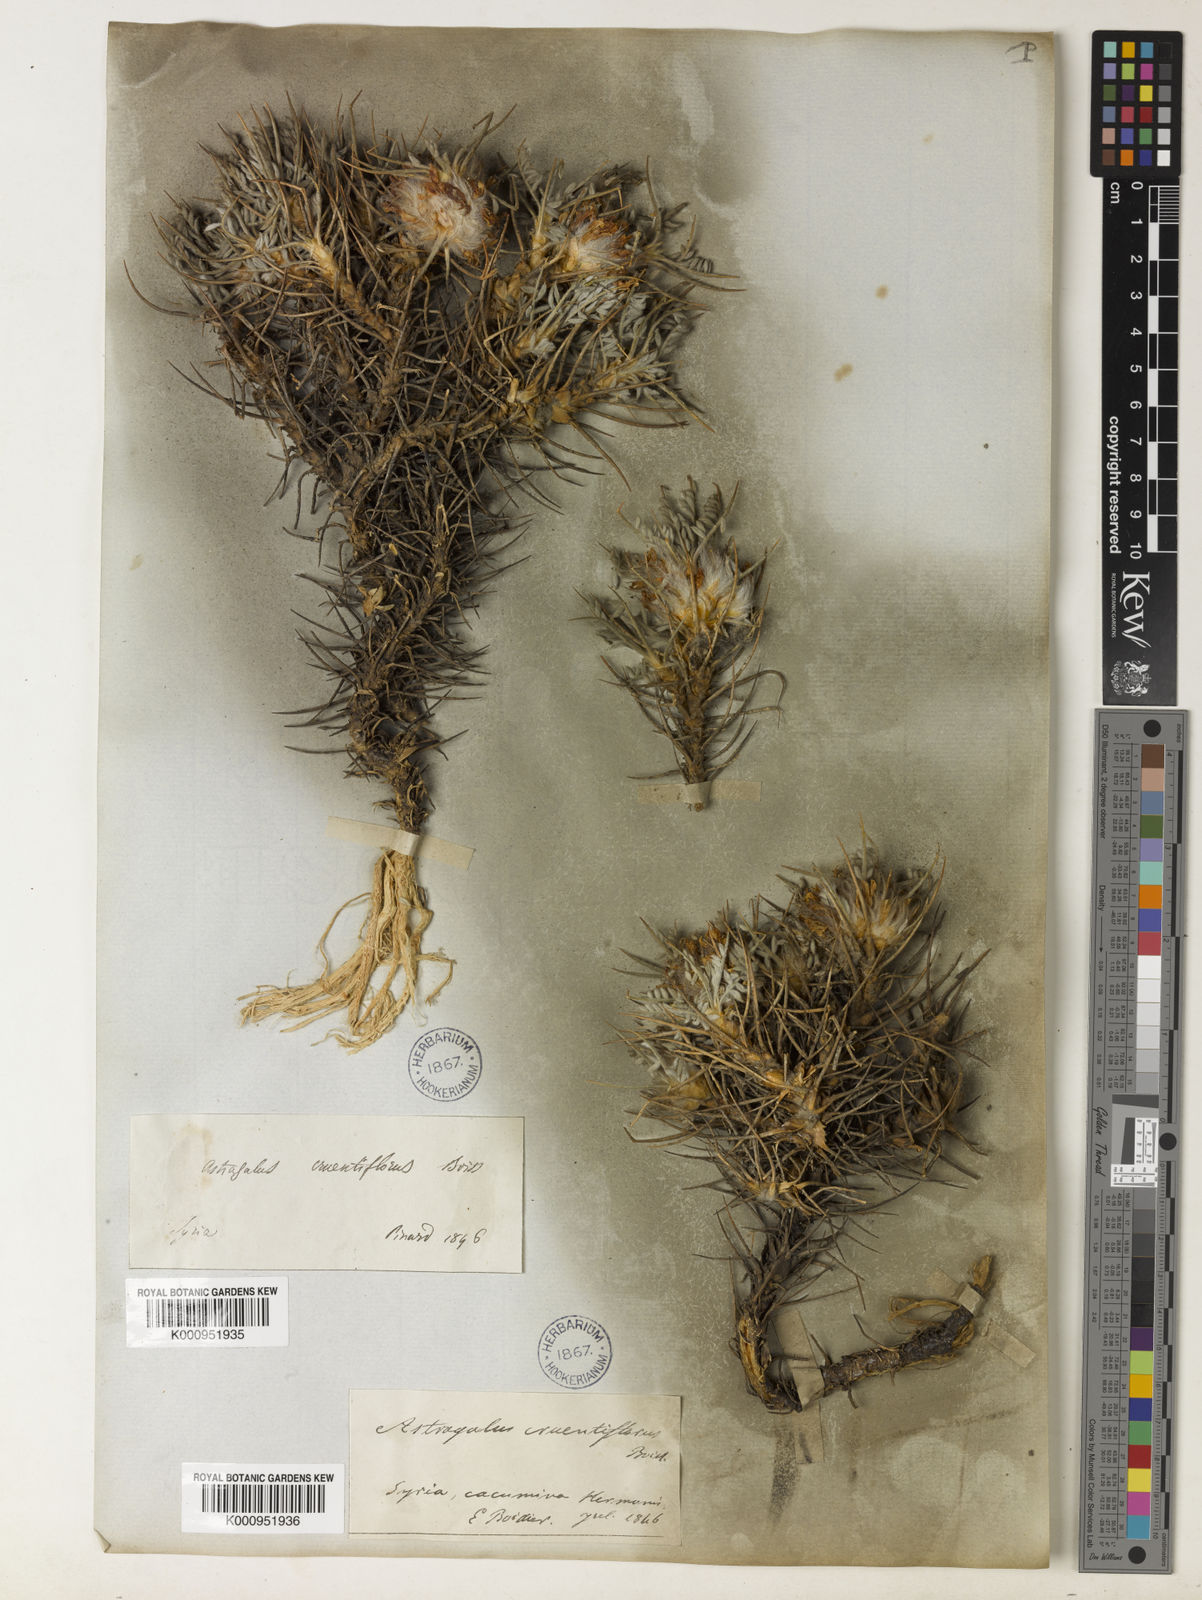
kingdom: Plantae
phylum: Tracheophyta
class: Magnoliopsida
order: Fabales
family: Fabaceae
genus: Astragalus
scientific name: Astragalus cruentiflorus
